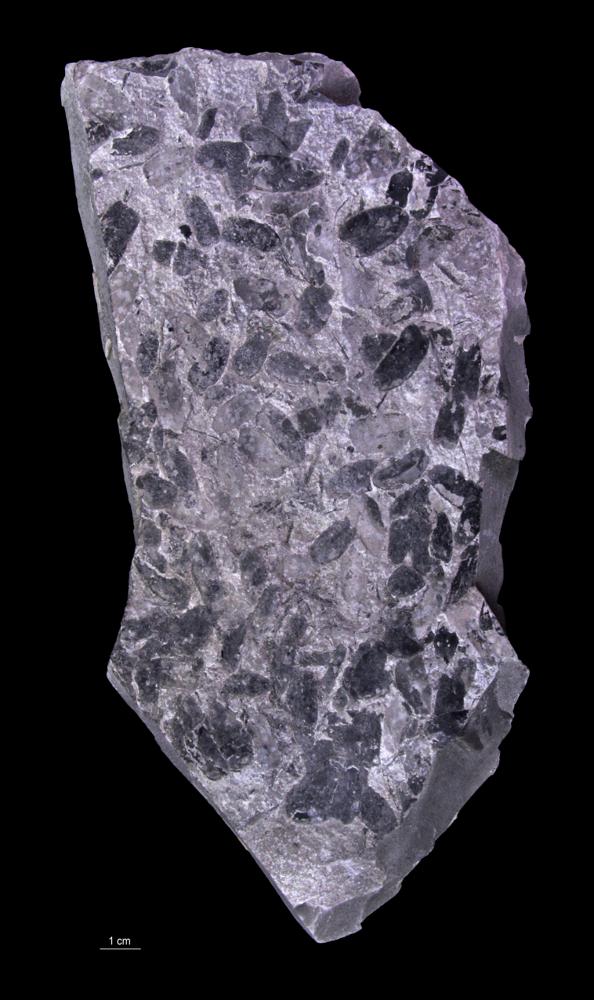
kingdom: Plantae
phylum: Tracheophyta
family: Pachytestaceae
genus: Paripteris
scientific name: Paripteris Neuropteris gigantea
